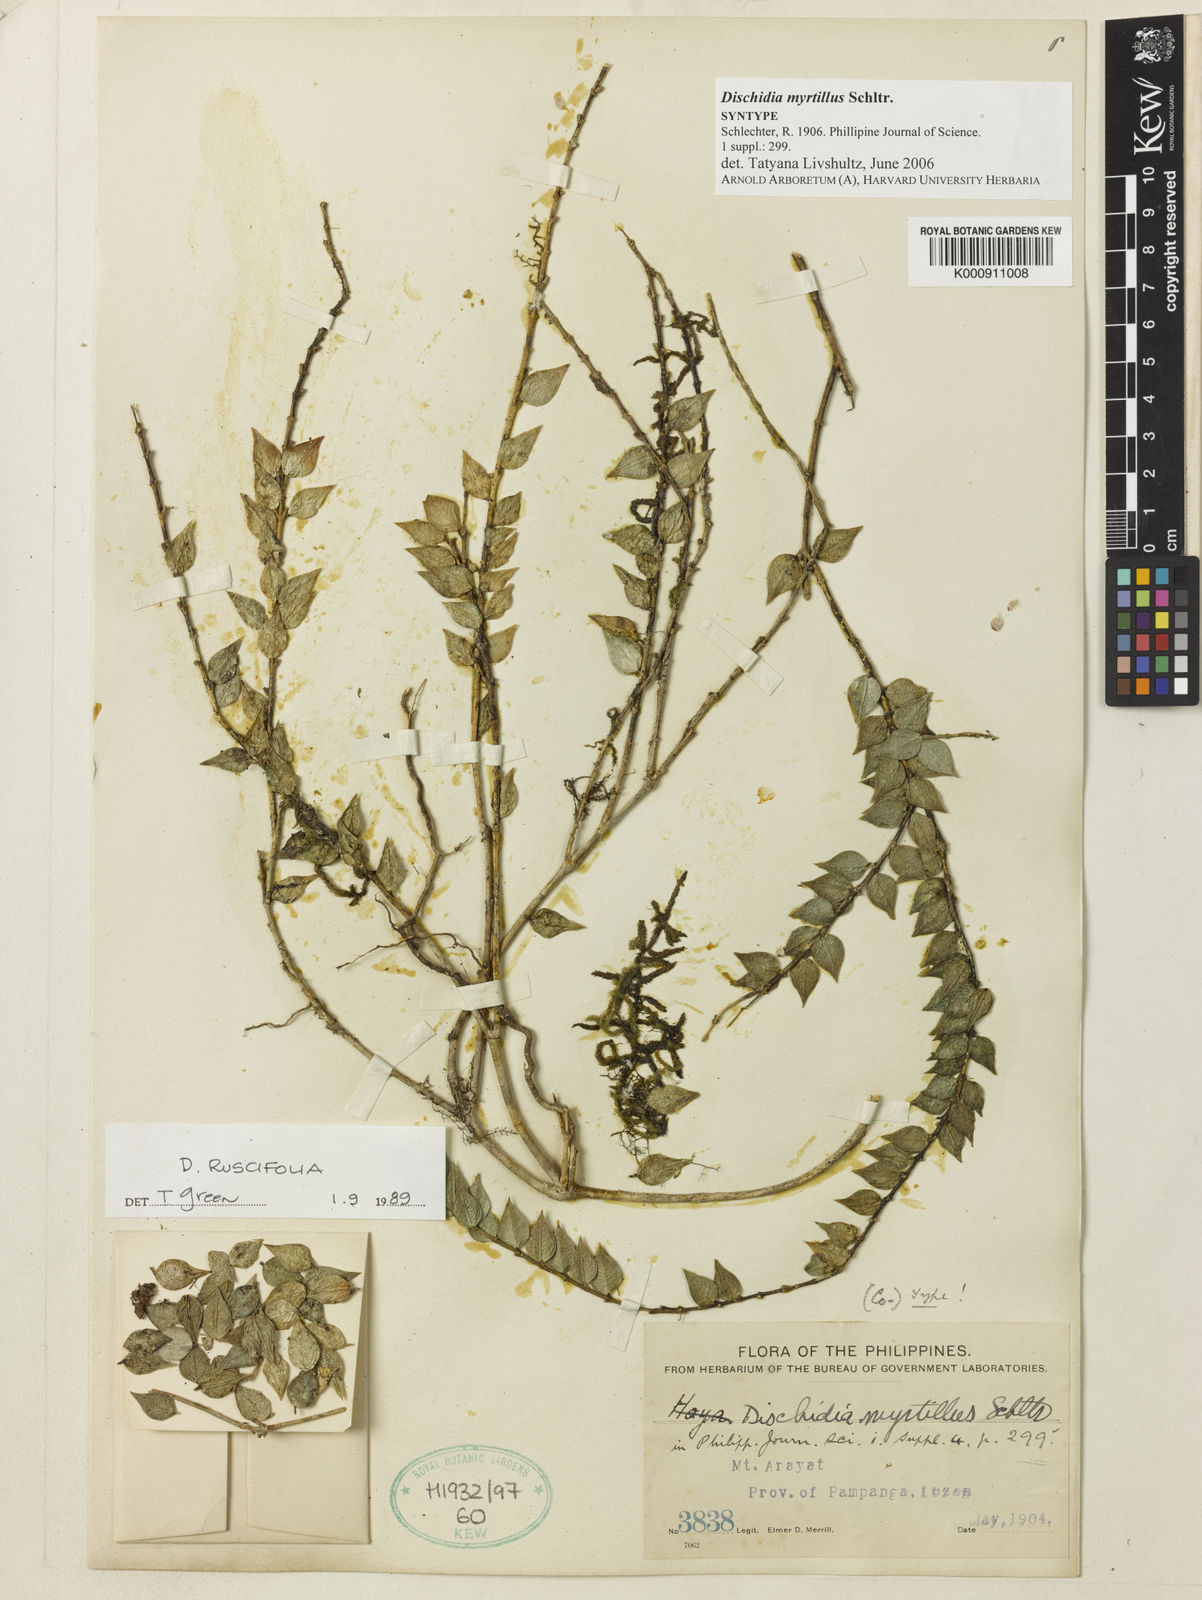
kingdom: Plantae
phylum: Tracheophyta
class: Magnoliopsida
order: Gentianales
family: Apocynaceae
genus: Dischidia
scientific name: Dischidia ruscifolia
